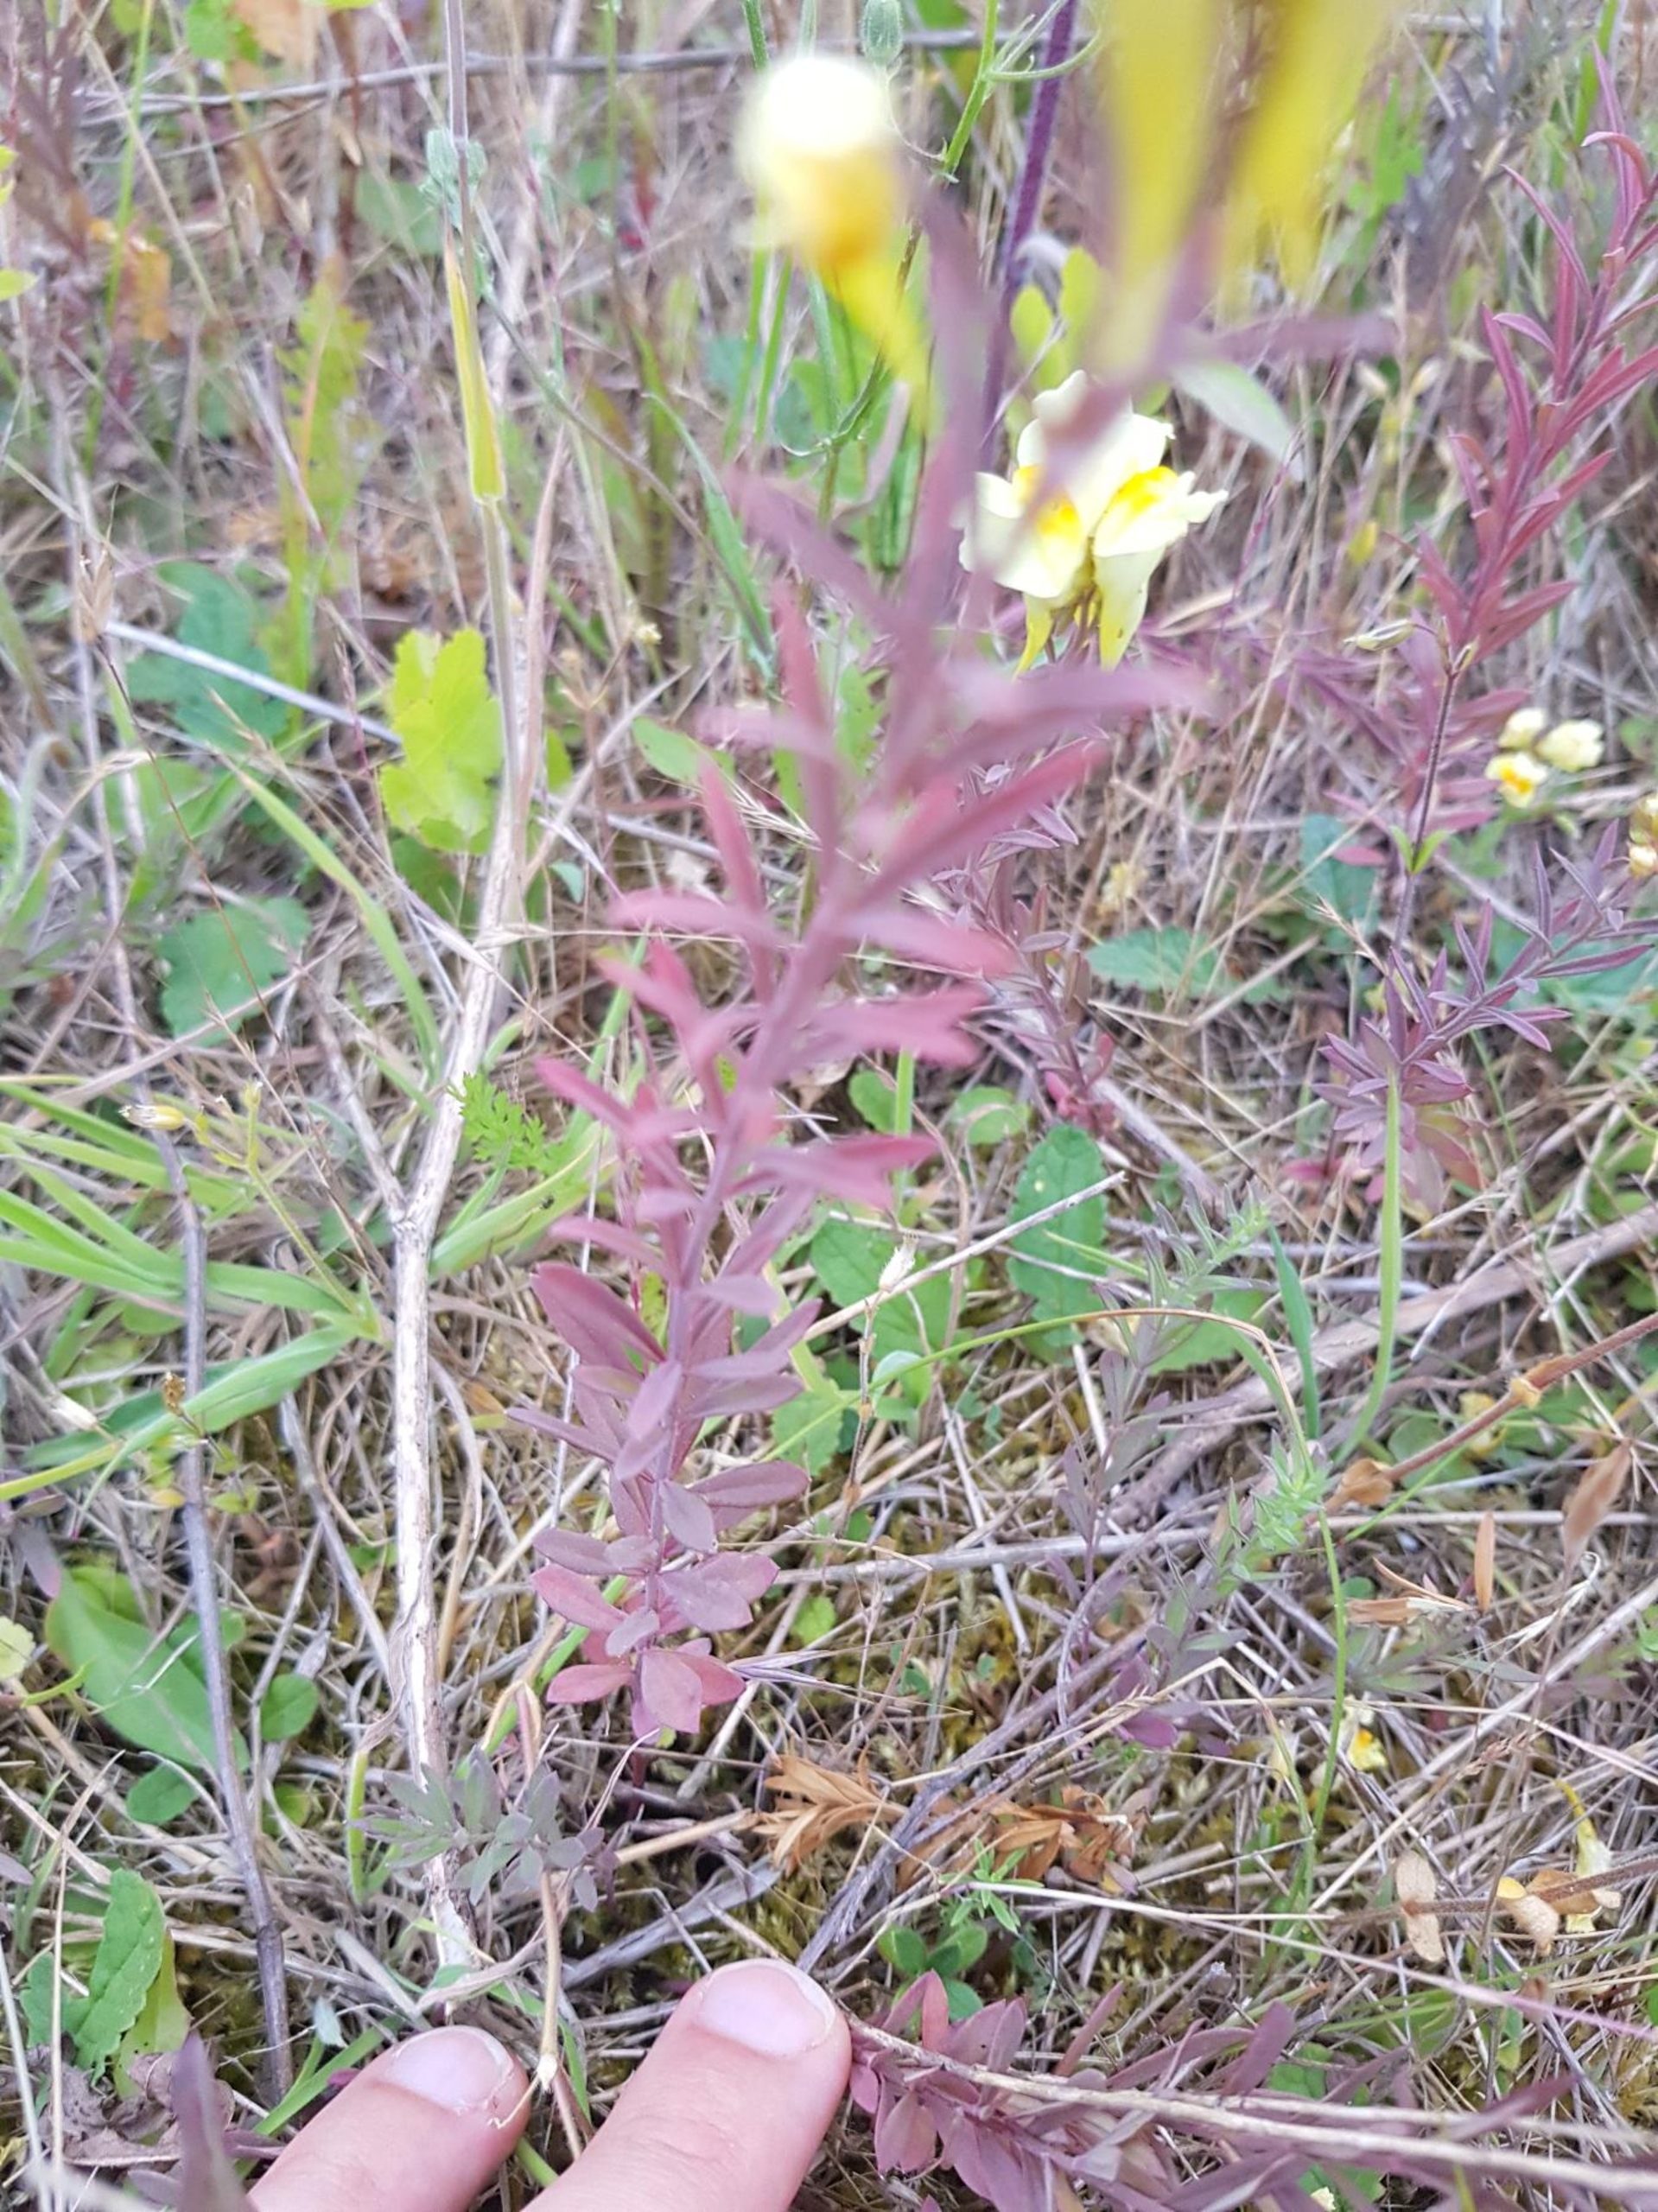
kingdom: Plantae
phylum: Tracheophyta
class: Magnoliopsida
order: Lamiales
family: Plantaginaceae
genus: Linaria
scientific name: Linaria vulgaris
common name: Almindelig torskemund
